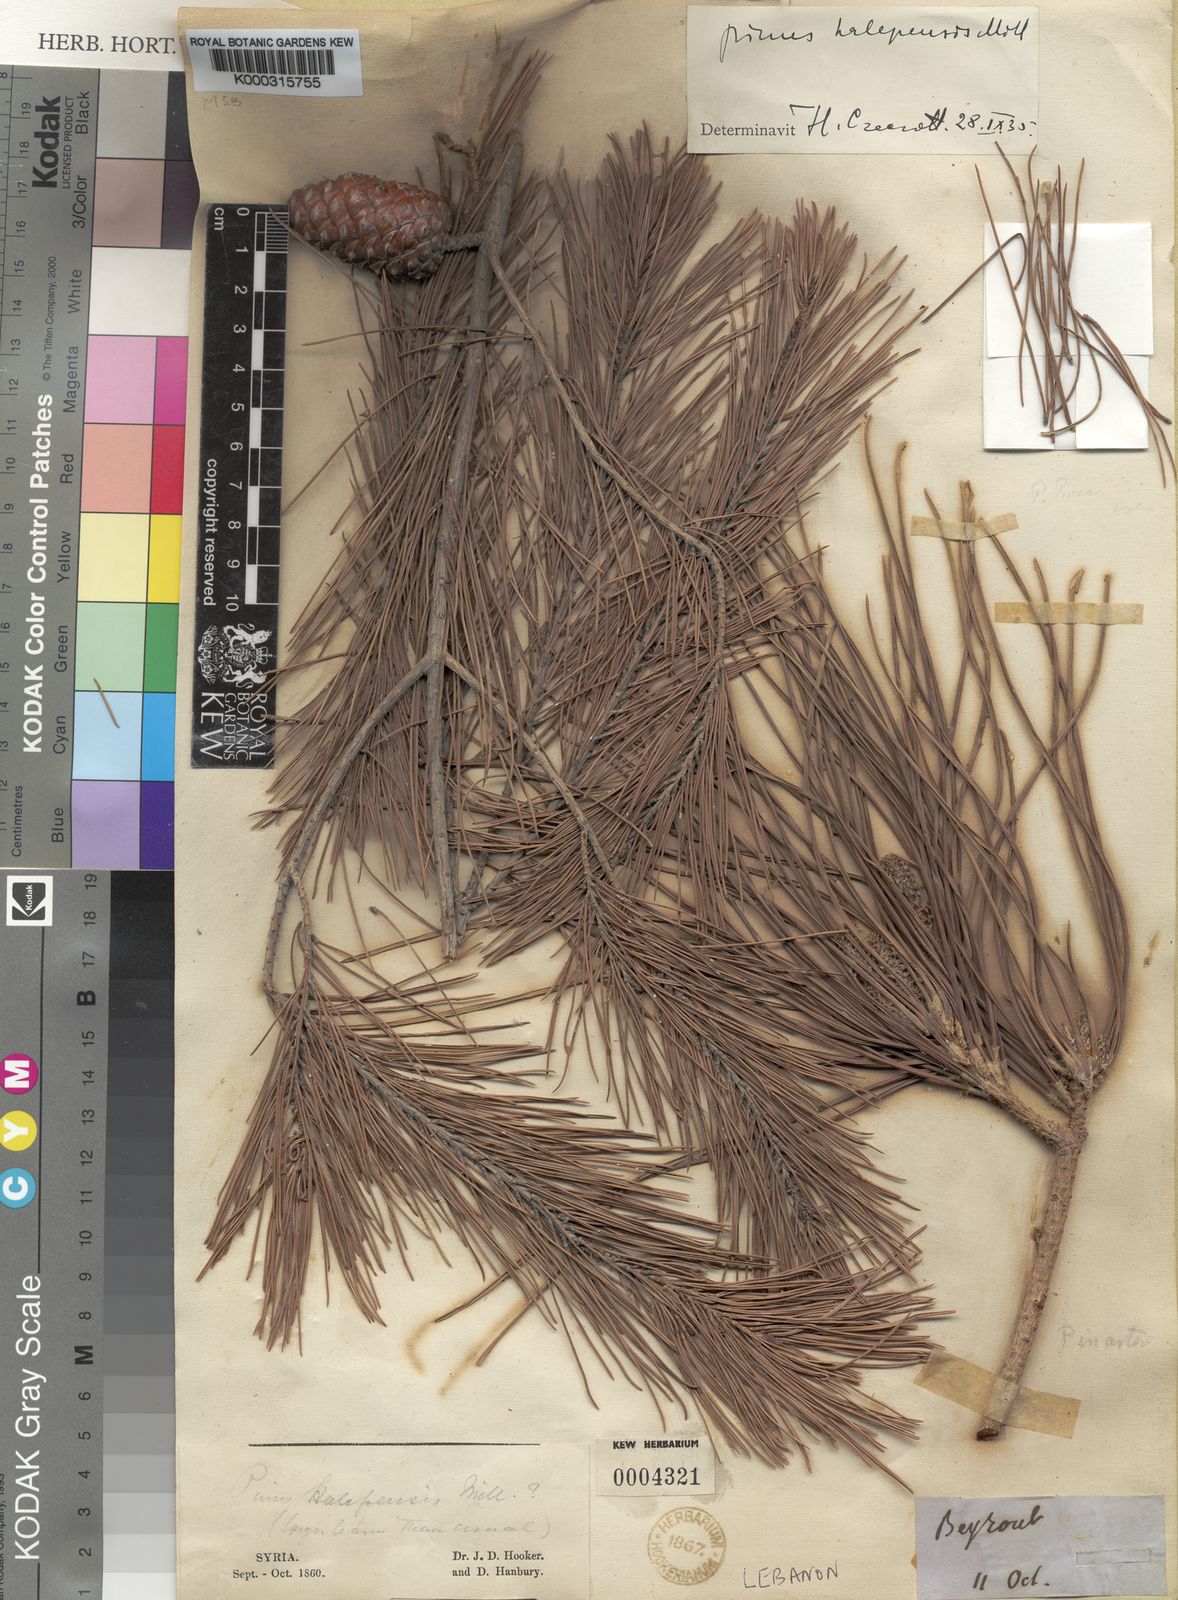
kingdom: Plantae
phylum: Tracheophyta
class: Pinopsida
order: Pinales
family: Pinaceae
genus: Pinus
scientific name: Pinus halepensis
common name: Aleppo pine
